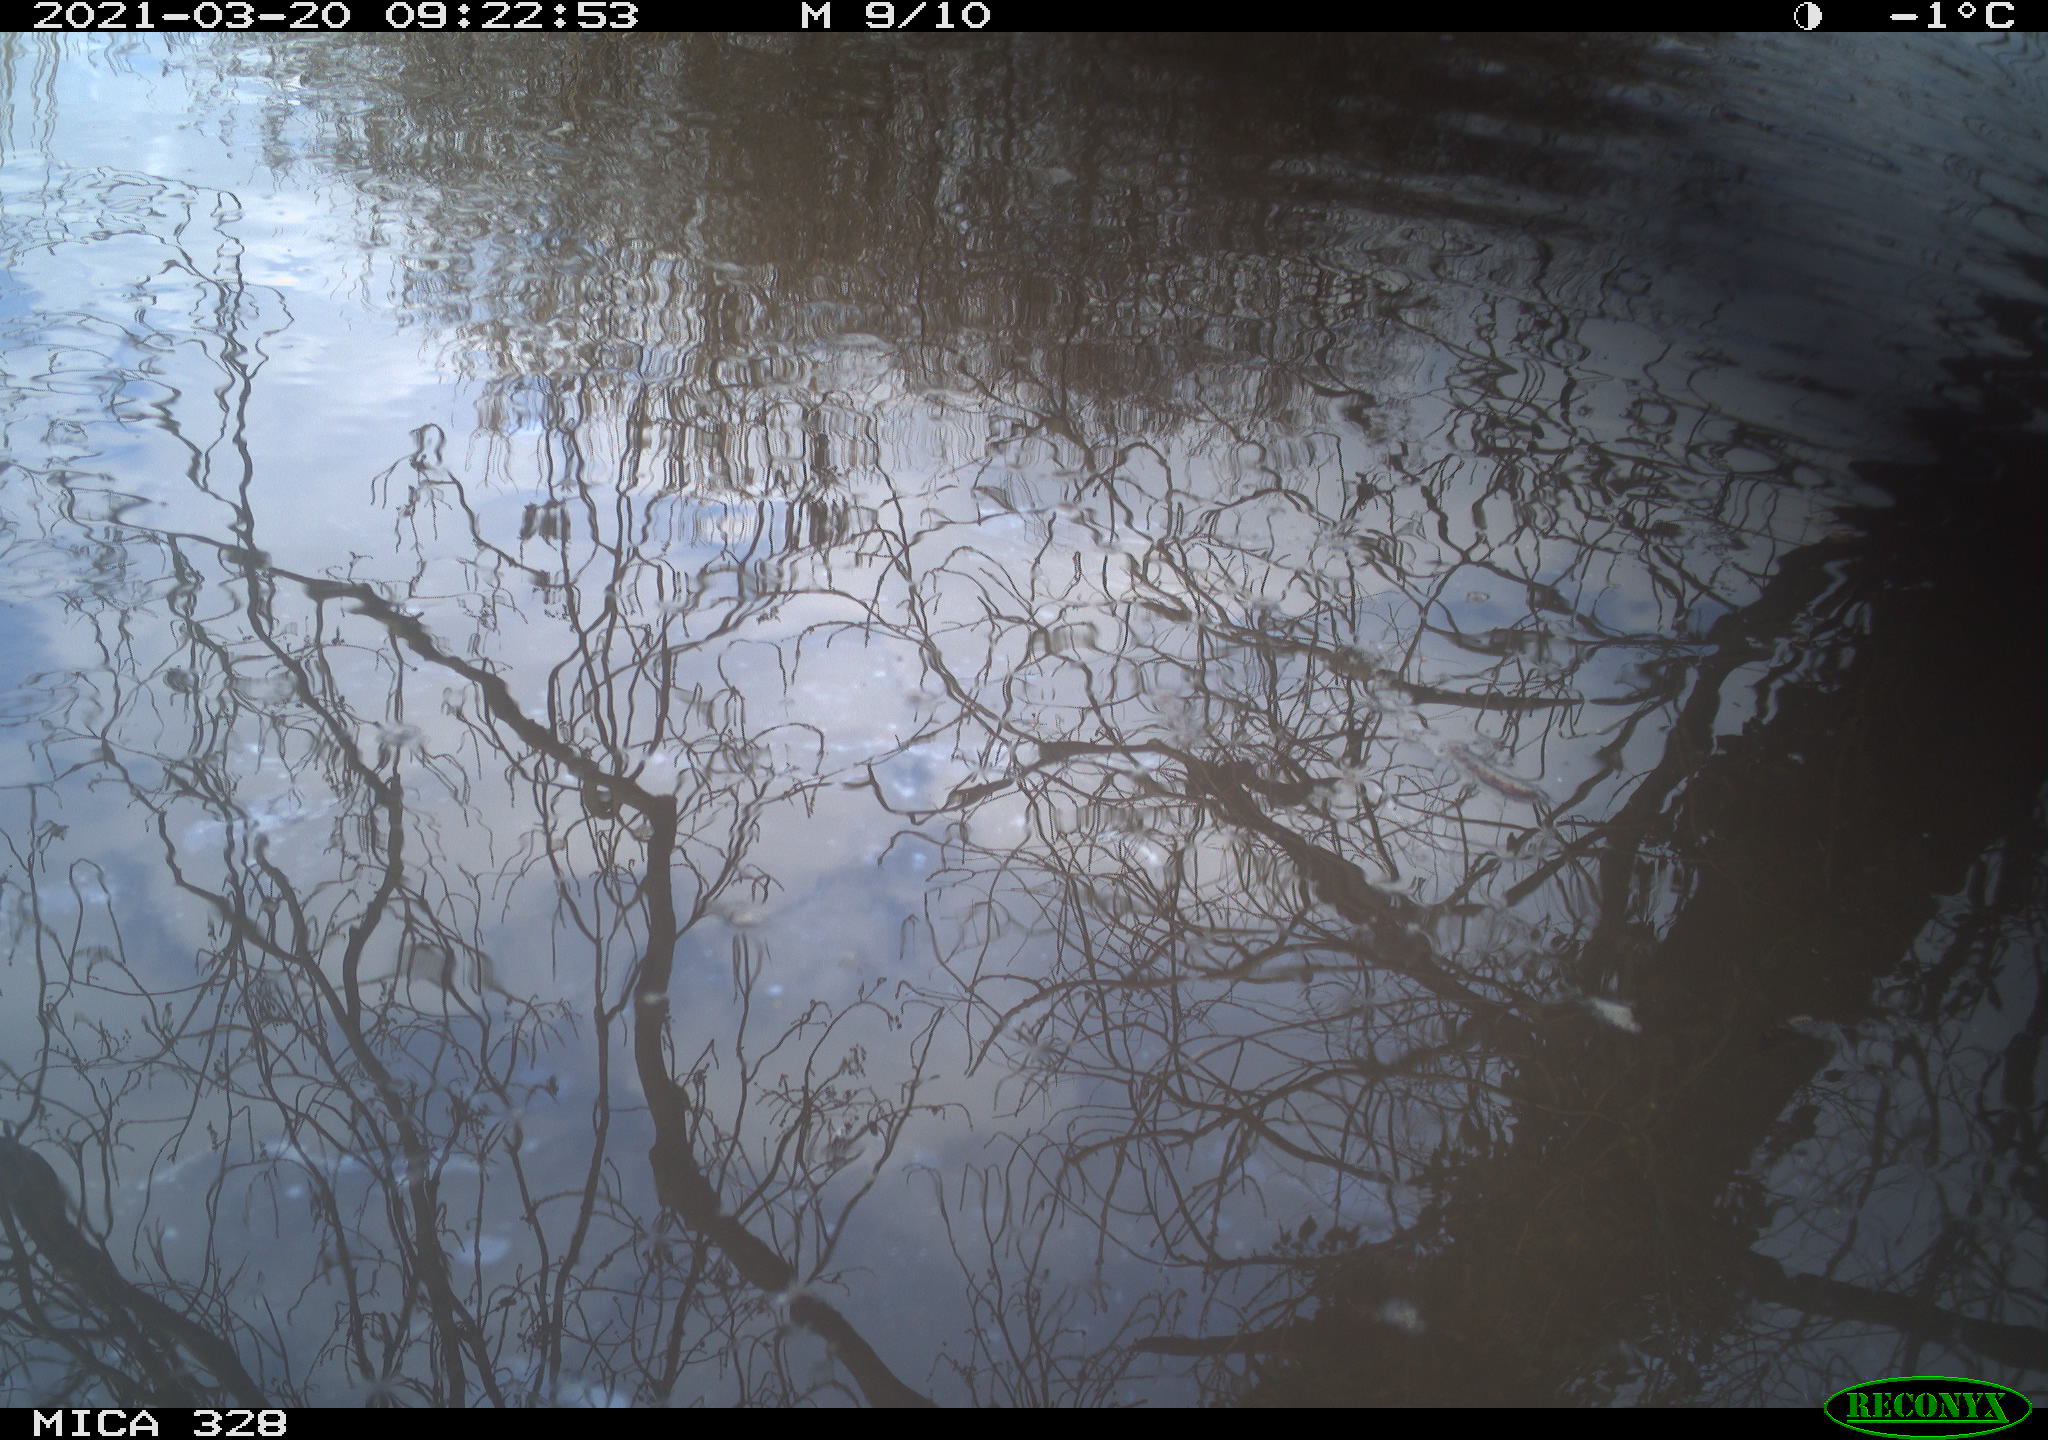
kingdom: Animalia
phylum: Chordata
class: Aves
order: Anseriformes
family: Anatidae
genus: Anas
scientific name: Anas platyrhynchos
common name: Mallard
